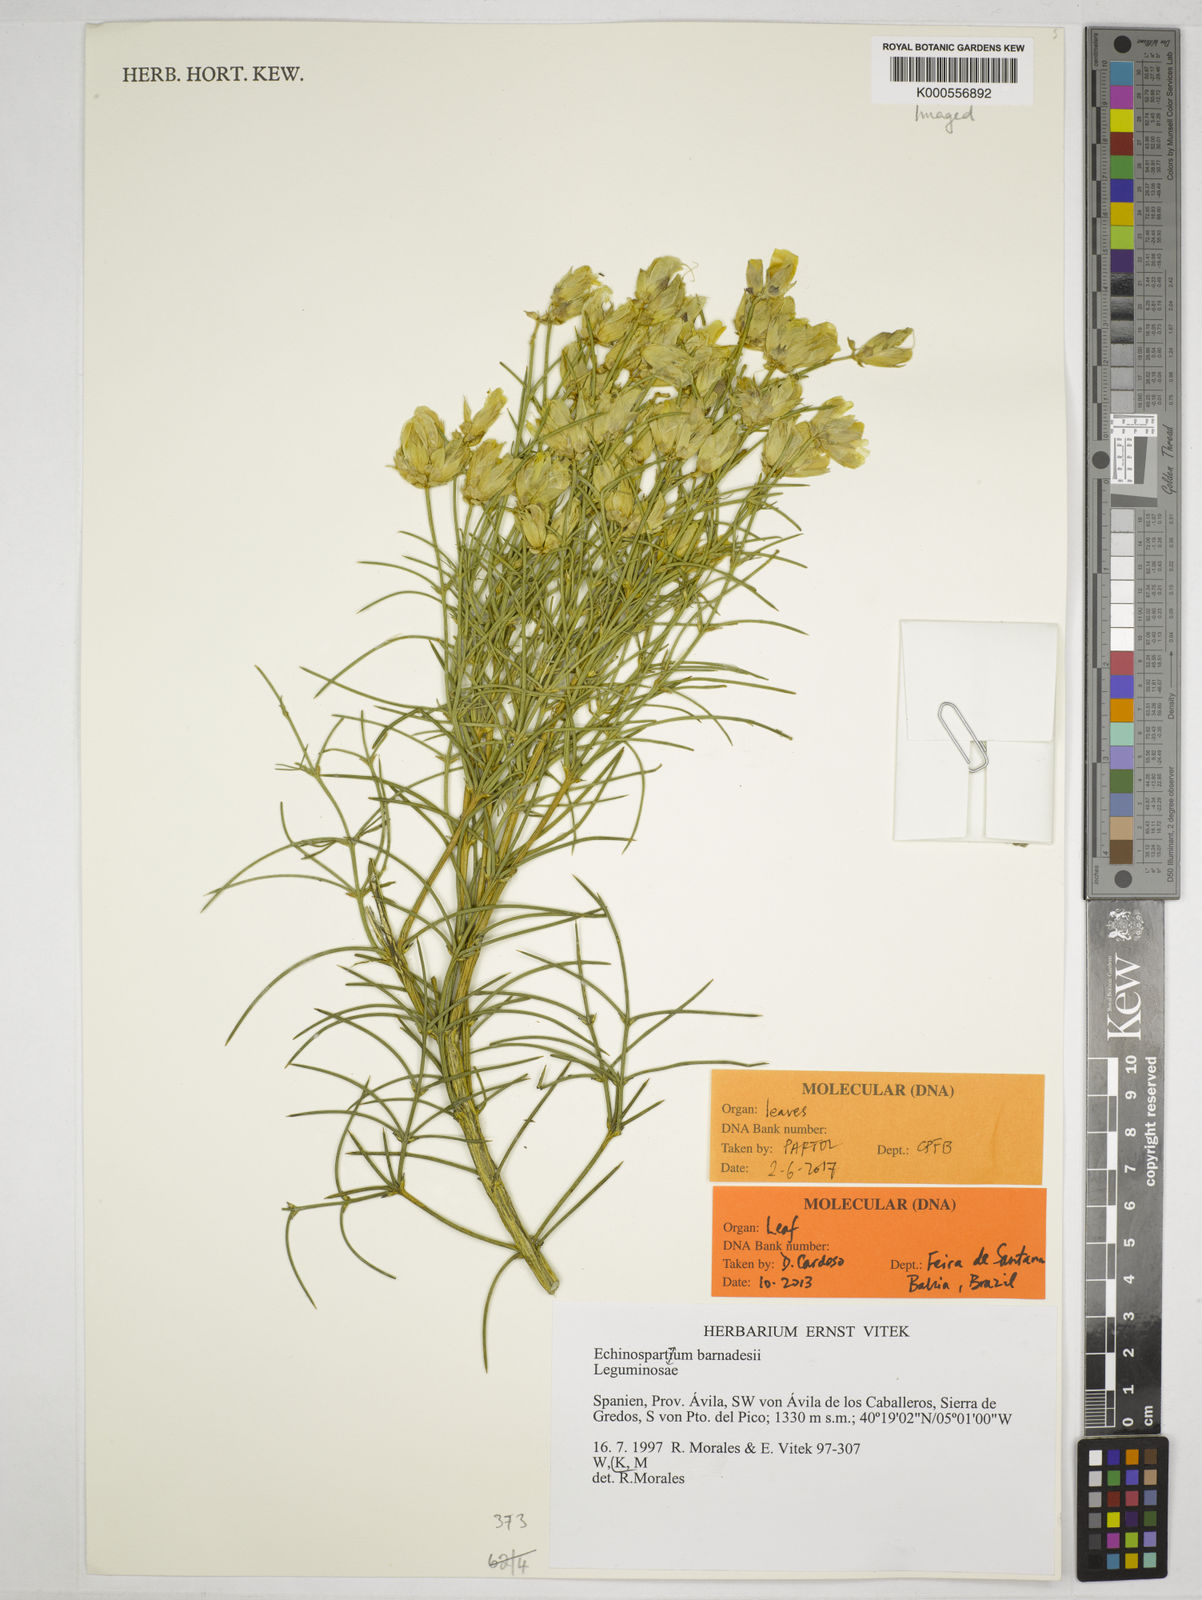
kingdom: Plantae
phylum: Tracheophyta
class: Magnoliopsida
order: Fabales
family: Fabaceae
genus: Echinospartum
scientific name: Echinospartum
